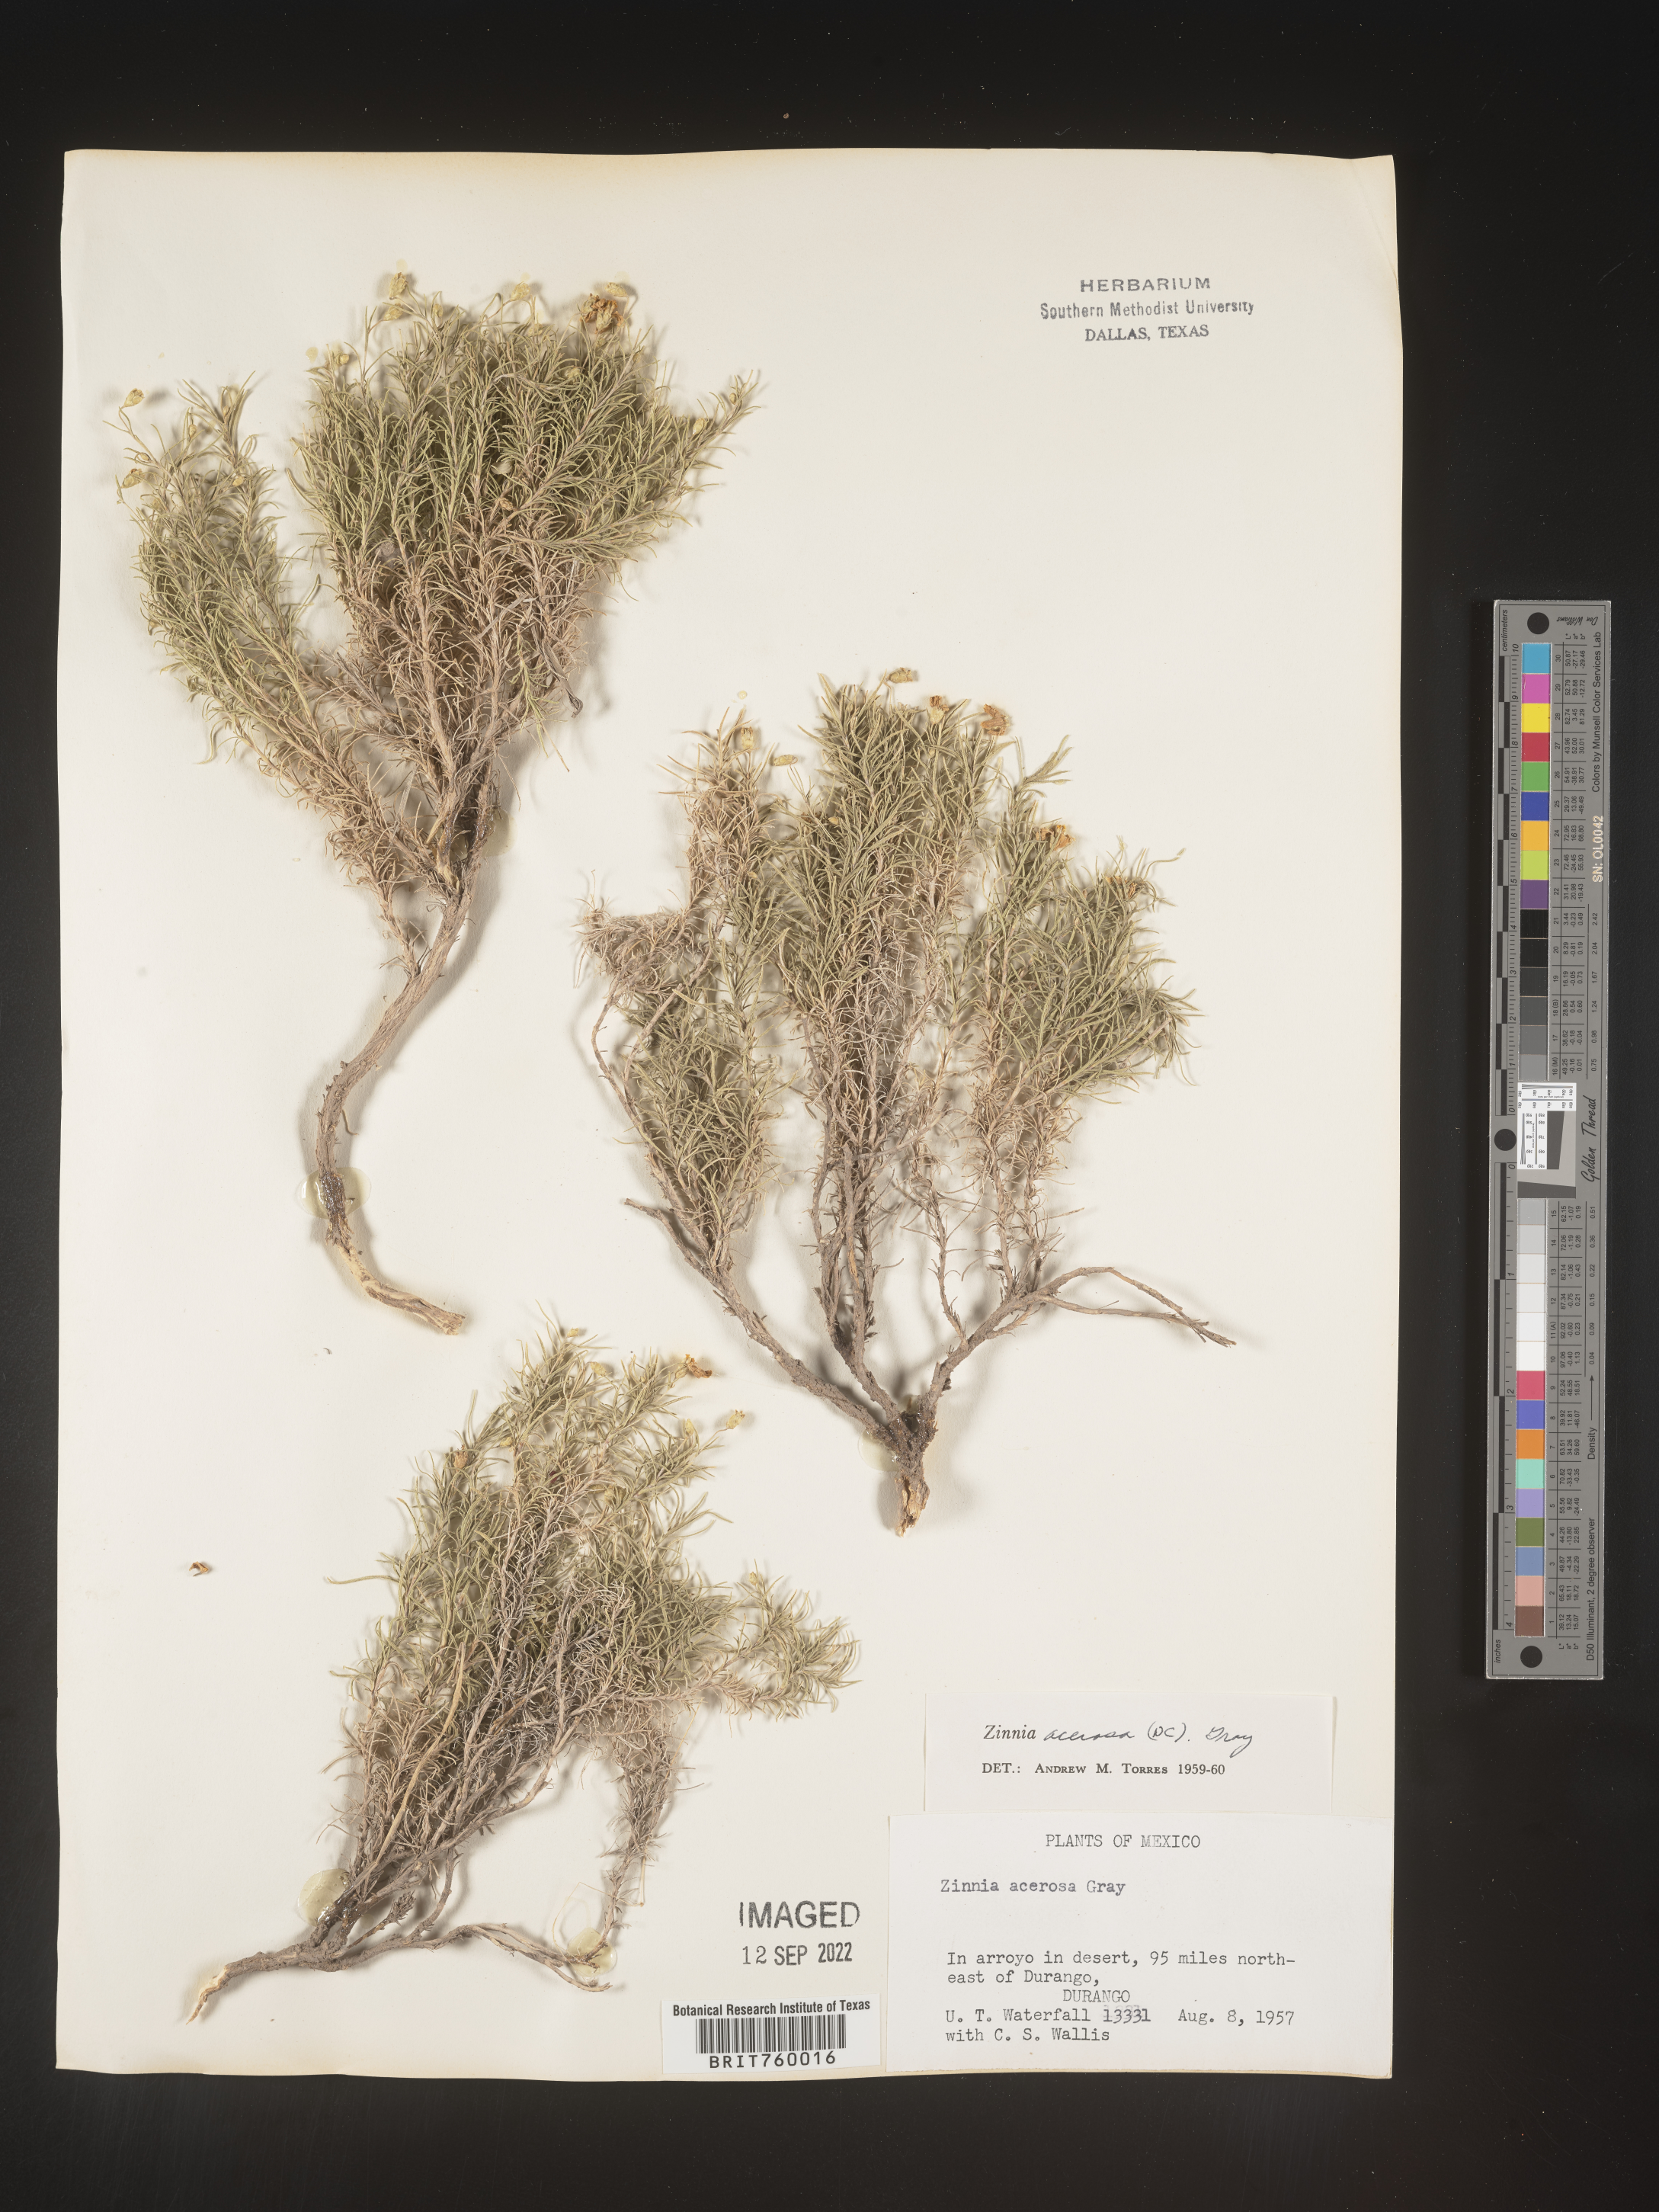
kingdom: Plantae
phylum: Tracheophyta
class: Magnoliopsida
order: Asterales
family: Asteraceae
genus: Zinnia
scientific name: Zinnia
